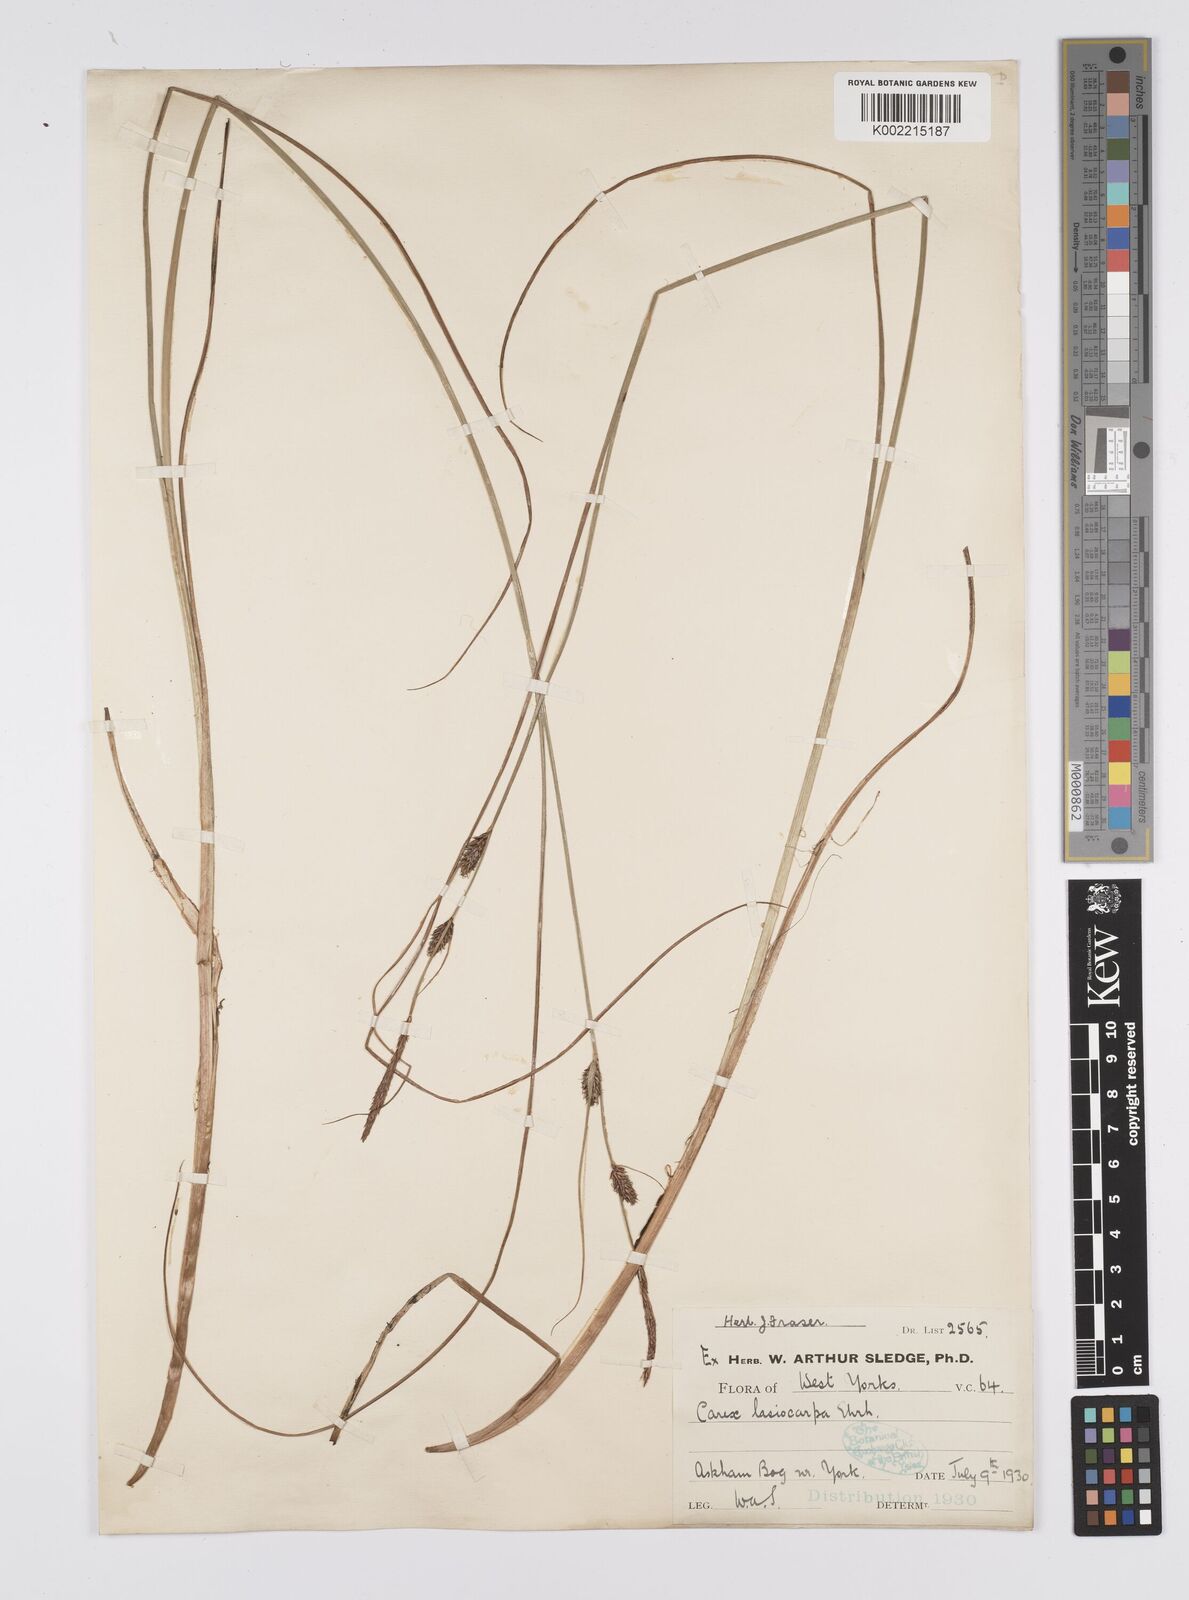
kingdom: Plantae
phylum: Tracheophyta
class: Liliopsida
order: Poales
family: Cyperaceae
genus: Carex
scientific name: Carex lasiocarpa
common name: Slender sedge
